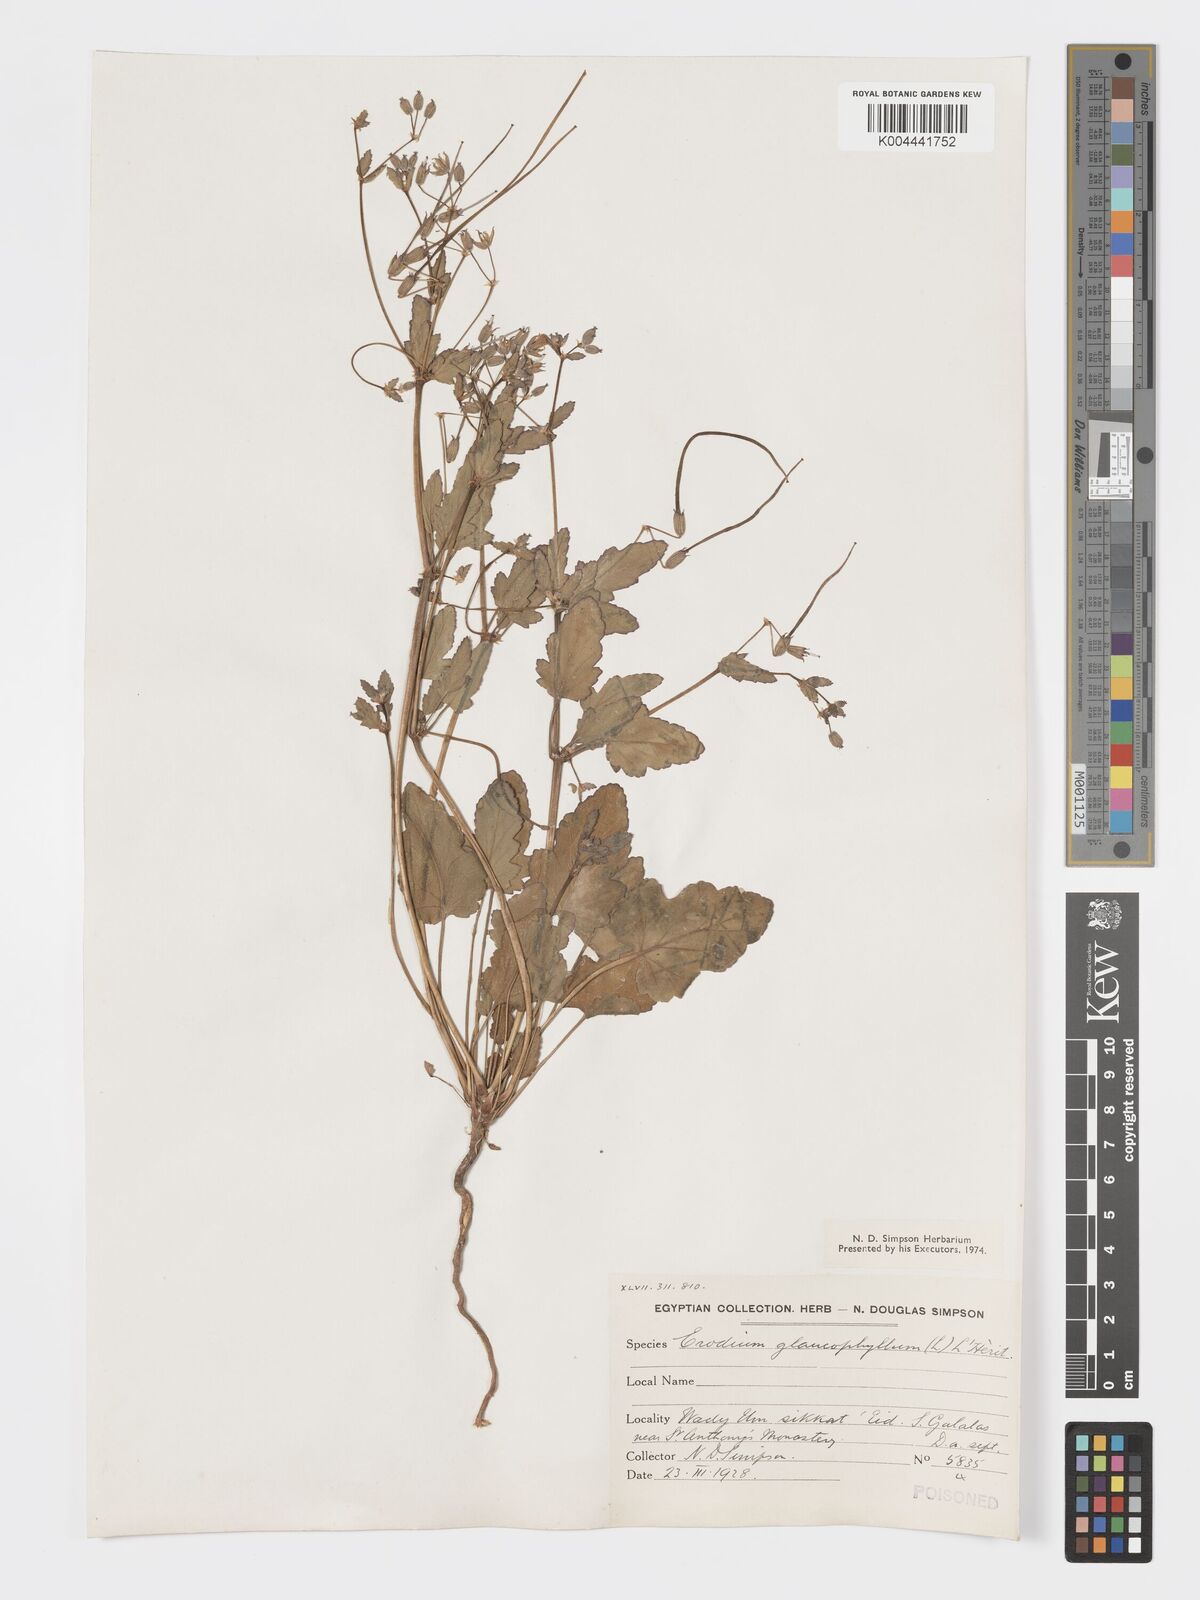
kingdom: Plantae
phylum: Tracheophyta
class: Magnoliopsida
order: Geraniales
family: Geraniaceae
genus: Erodium
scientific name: Erodium glaucophyllum
